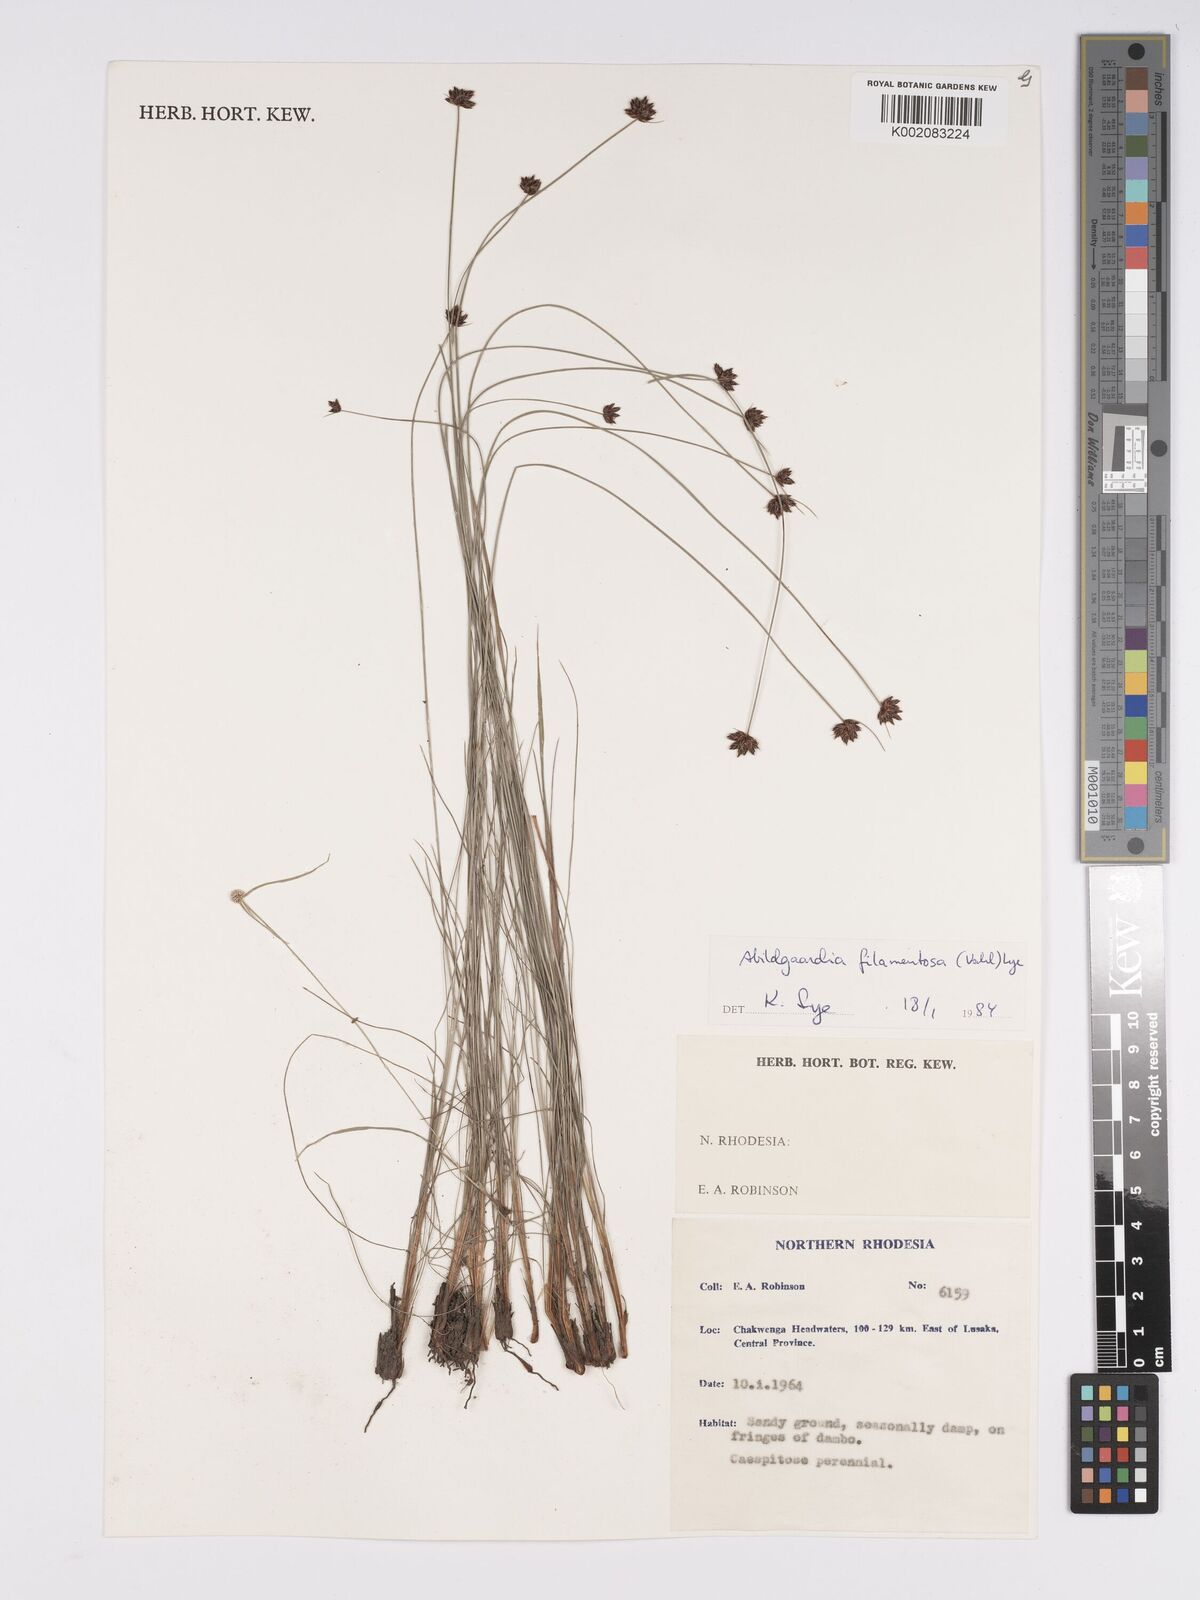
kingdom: Plantae
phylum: Tracheophyta
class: Liliopsida
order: Poales
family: Cyperaceae
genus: Bulbostylis
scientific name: Bulbostylis filamentosa
